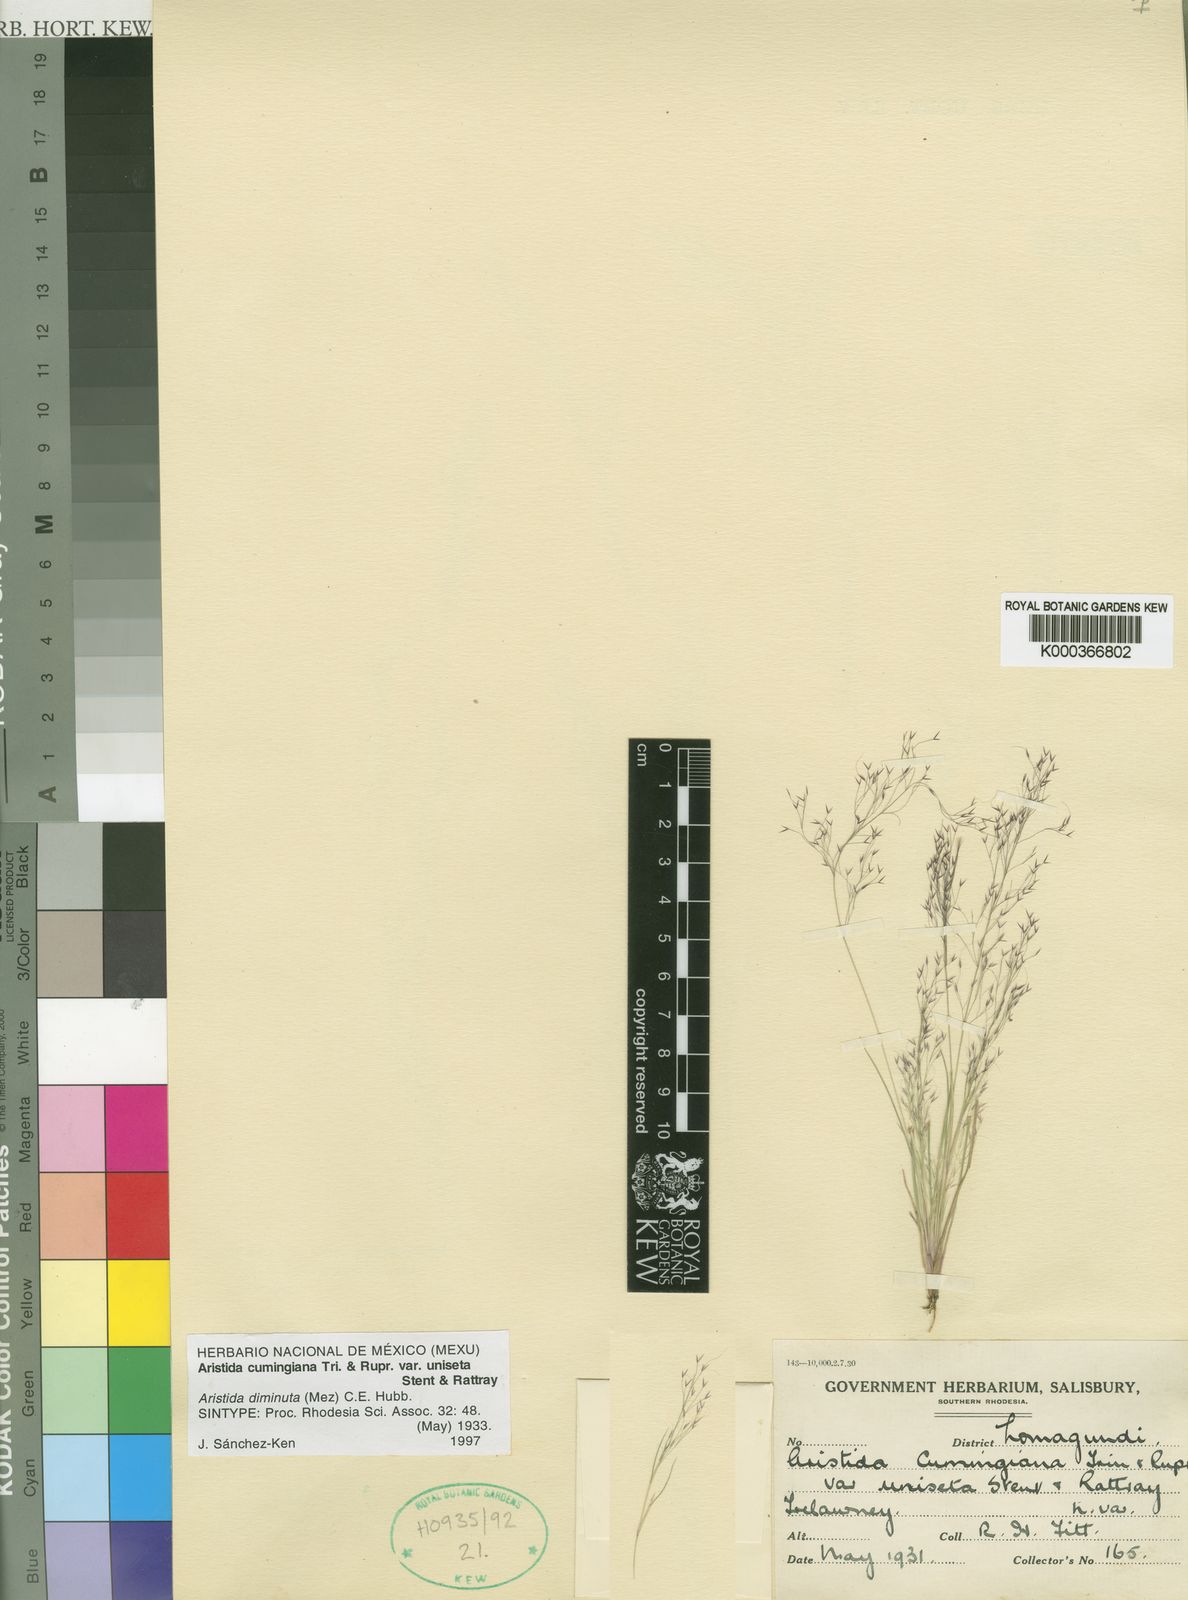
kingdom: Plantae
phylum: Tracheophyta
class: Liliopsida
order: Poales
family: Poaceae
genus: Aristida
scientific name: Aristida diminuta
